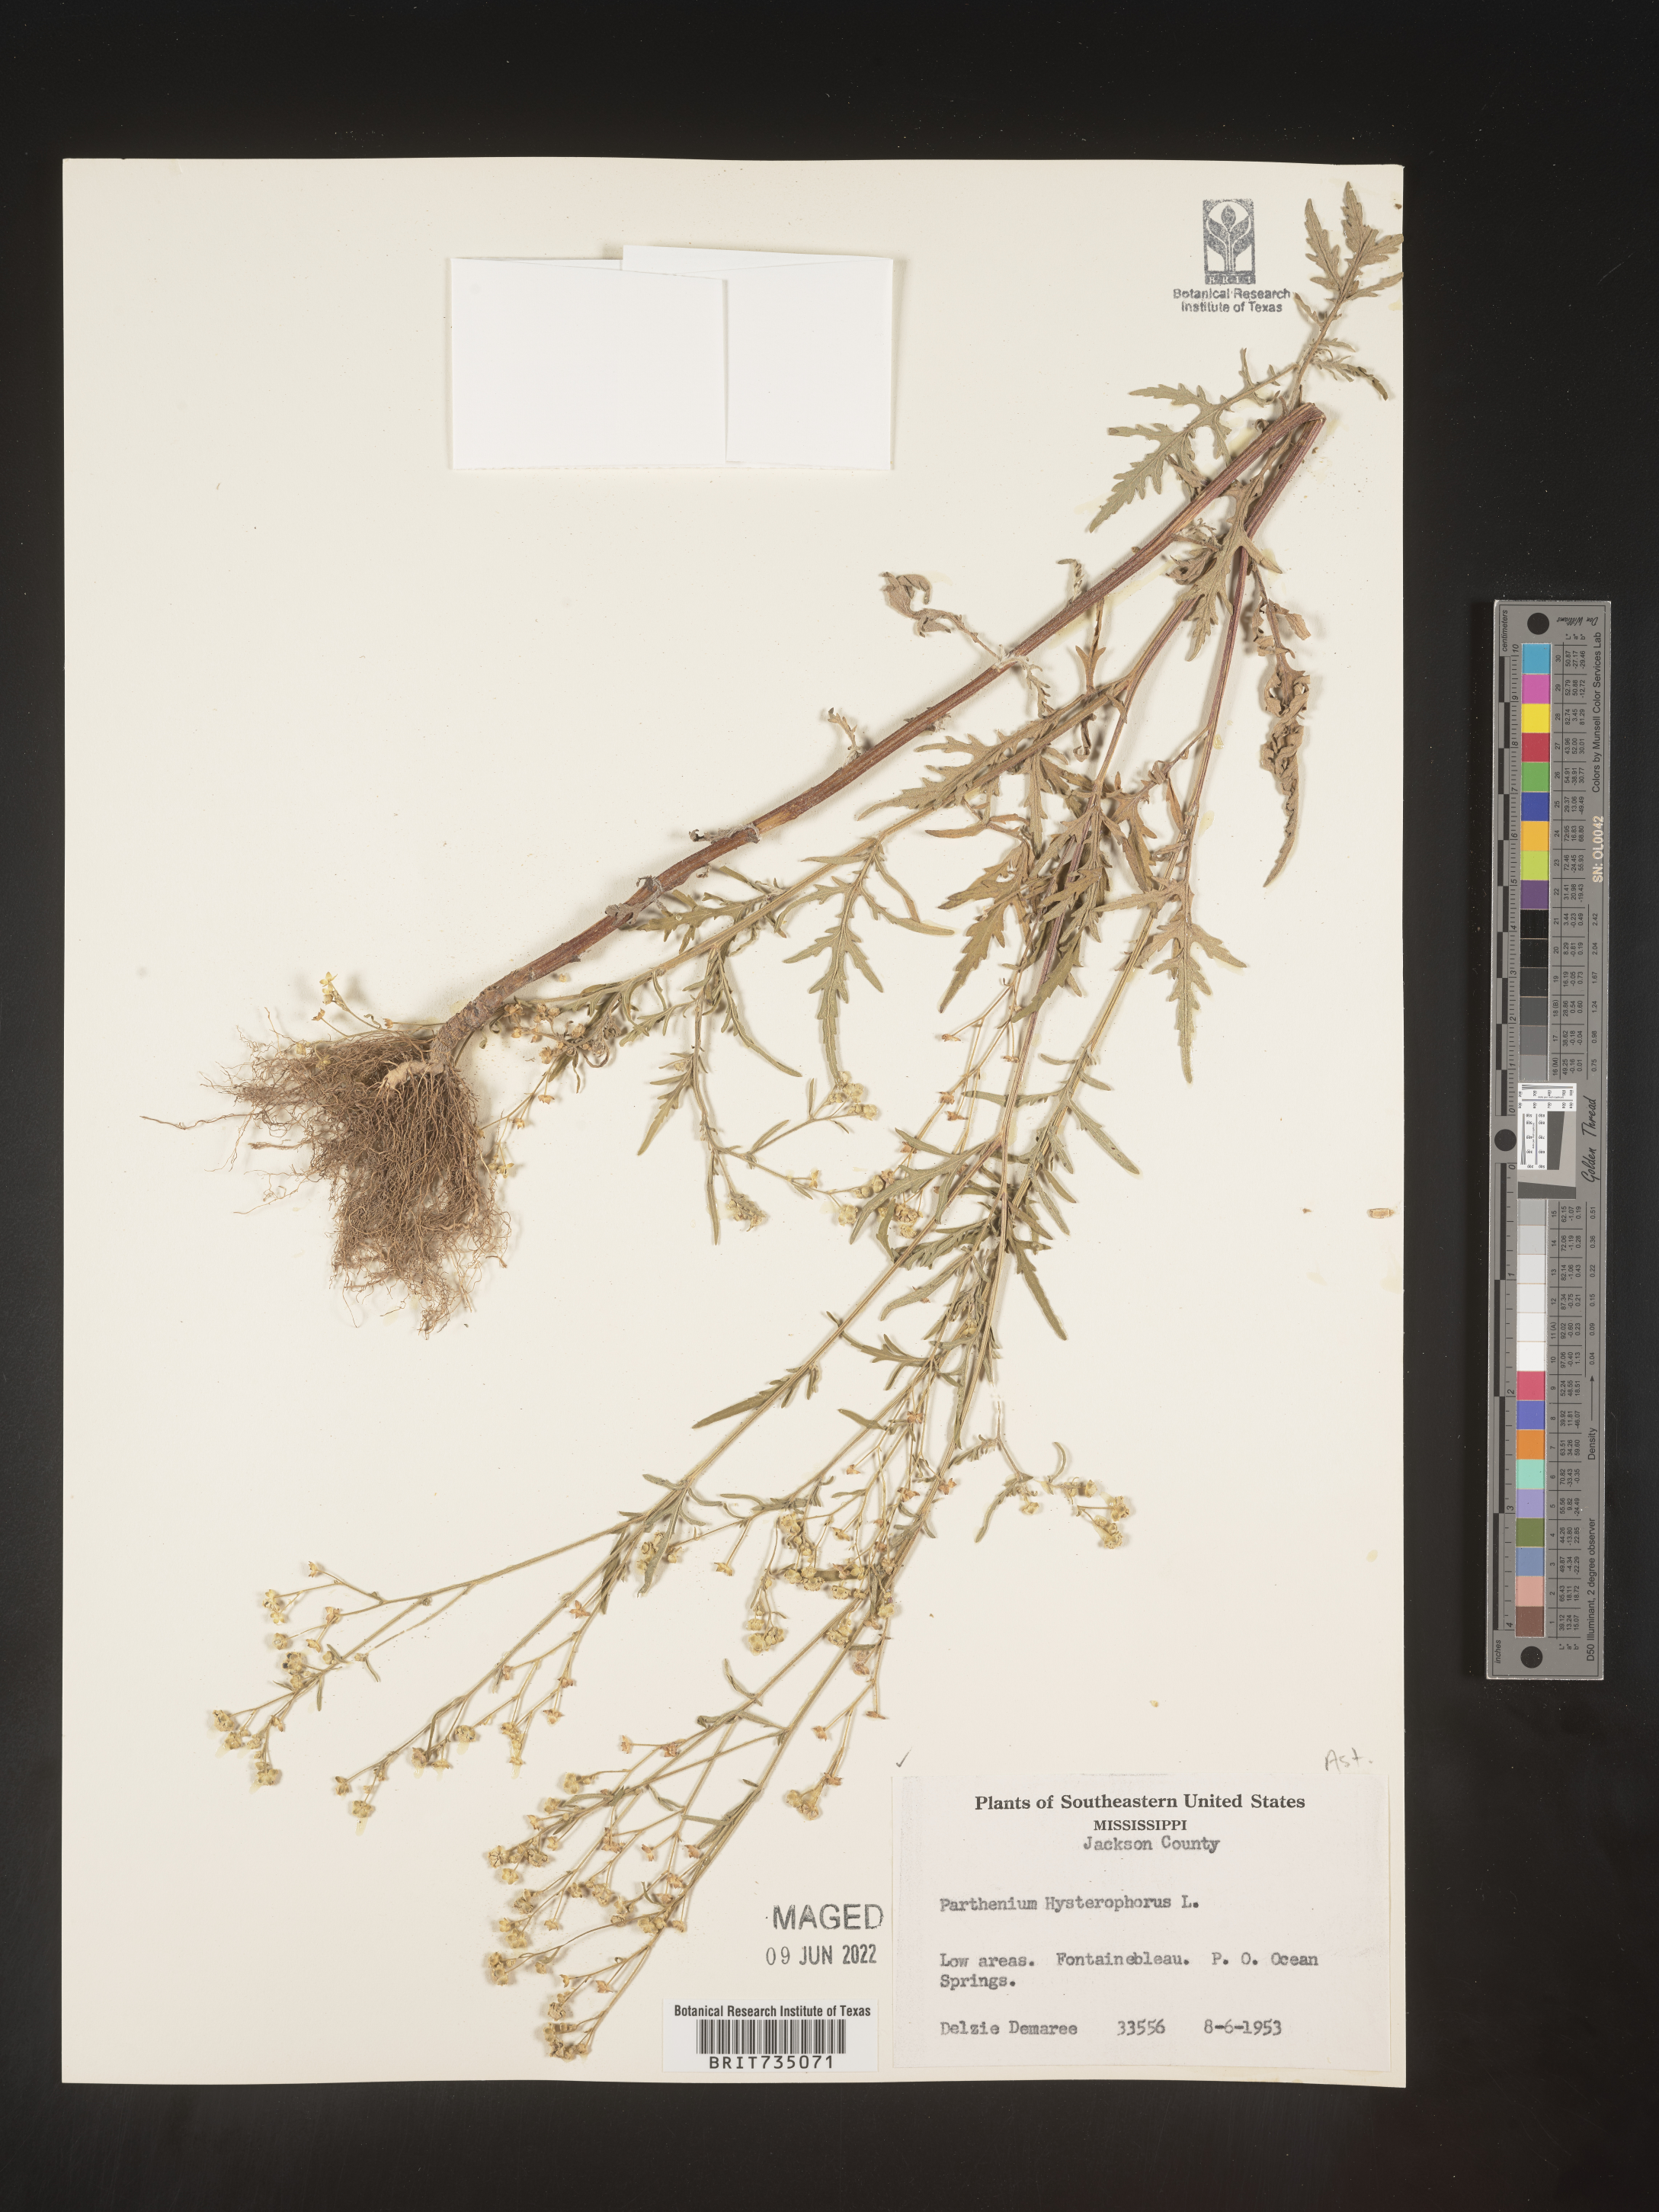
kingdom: Plantae
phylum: Tracheophyta
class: Magnoliopsida
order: Asterales
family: Asteraceae
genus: Parthenium
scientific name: Parthenium hysterophorus
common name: Santa maria feverfew
